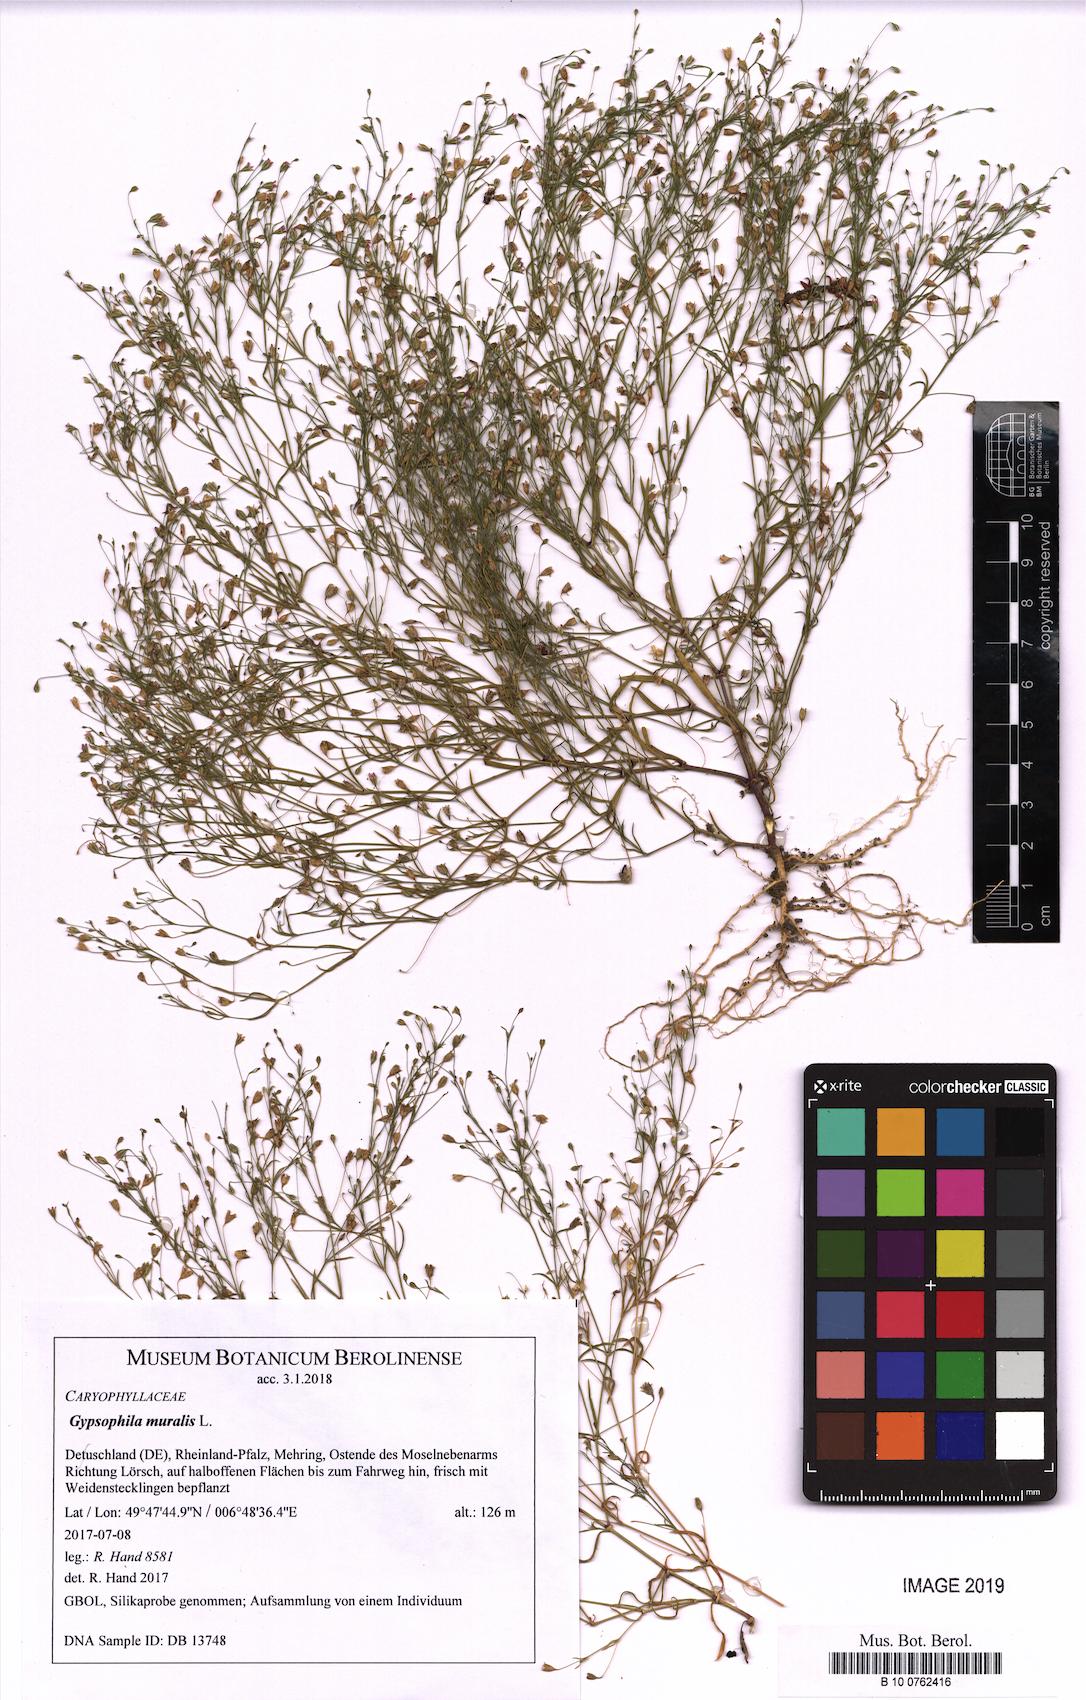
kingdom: Plantae
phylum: Tracheophyta
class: Magnoliopsida
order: Caryophyllales
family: Caryophyllaceae
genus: Psammophiliella
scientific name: Psammophiliella muralis
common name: Cushion baby's-breath
